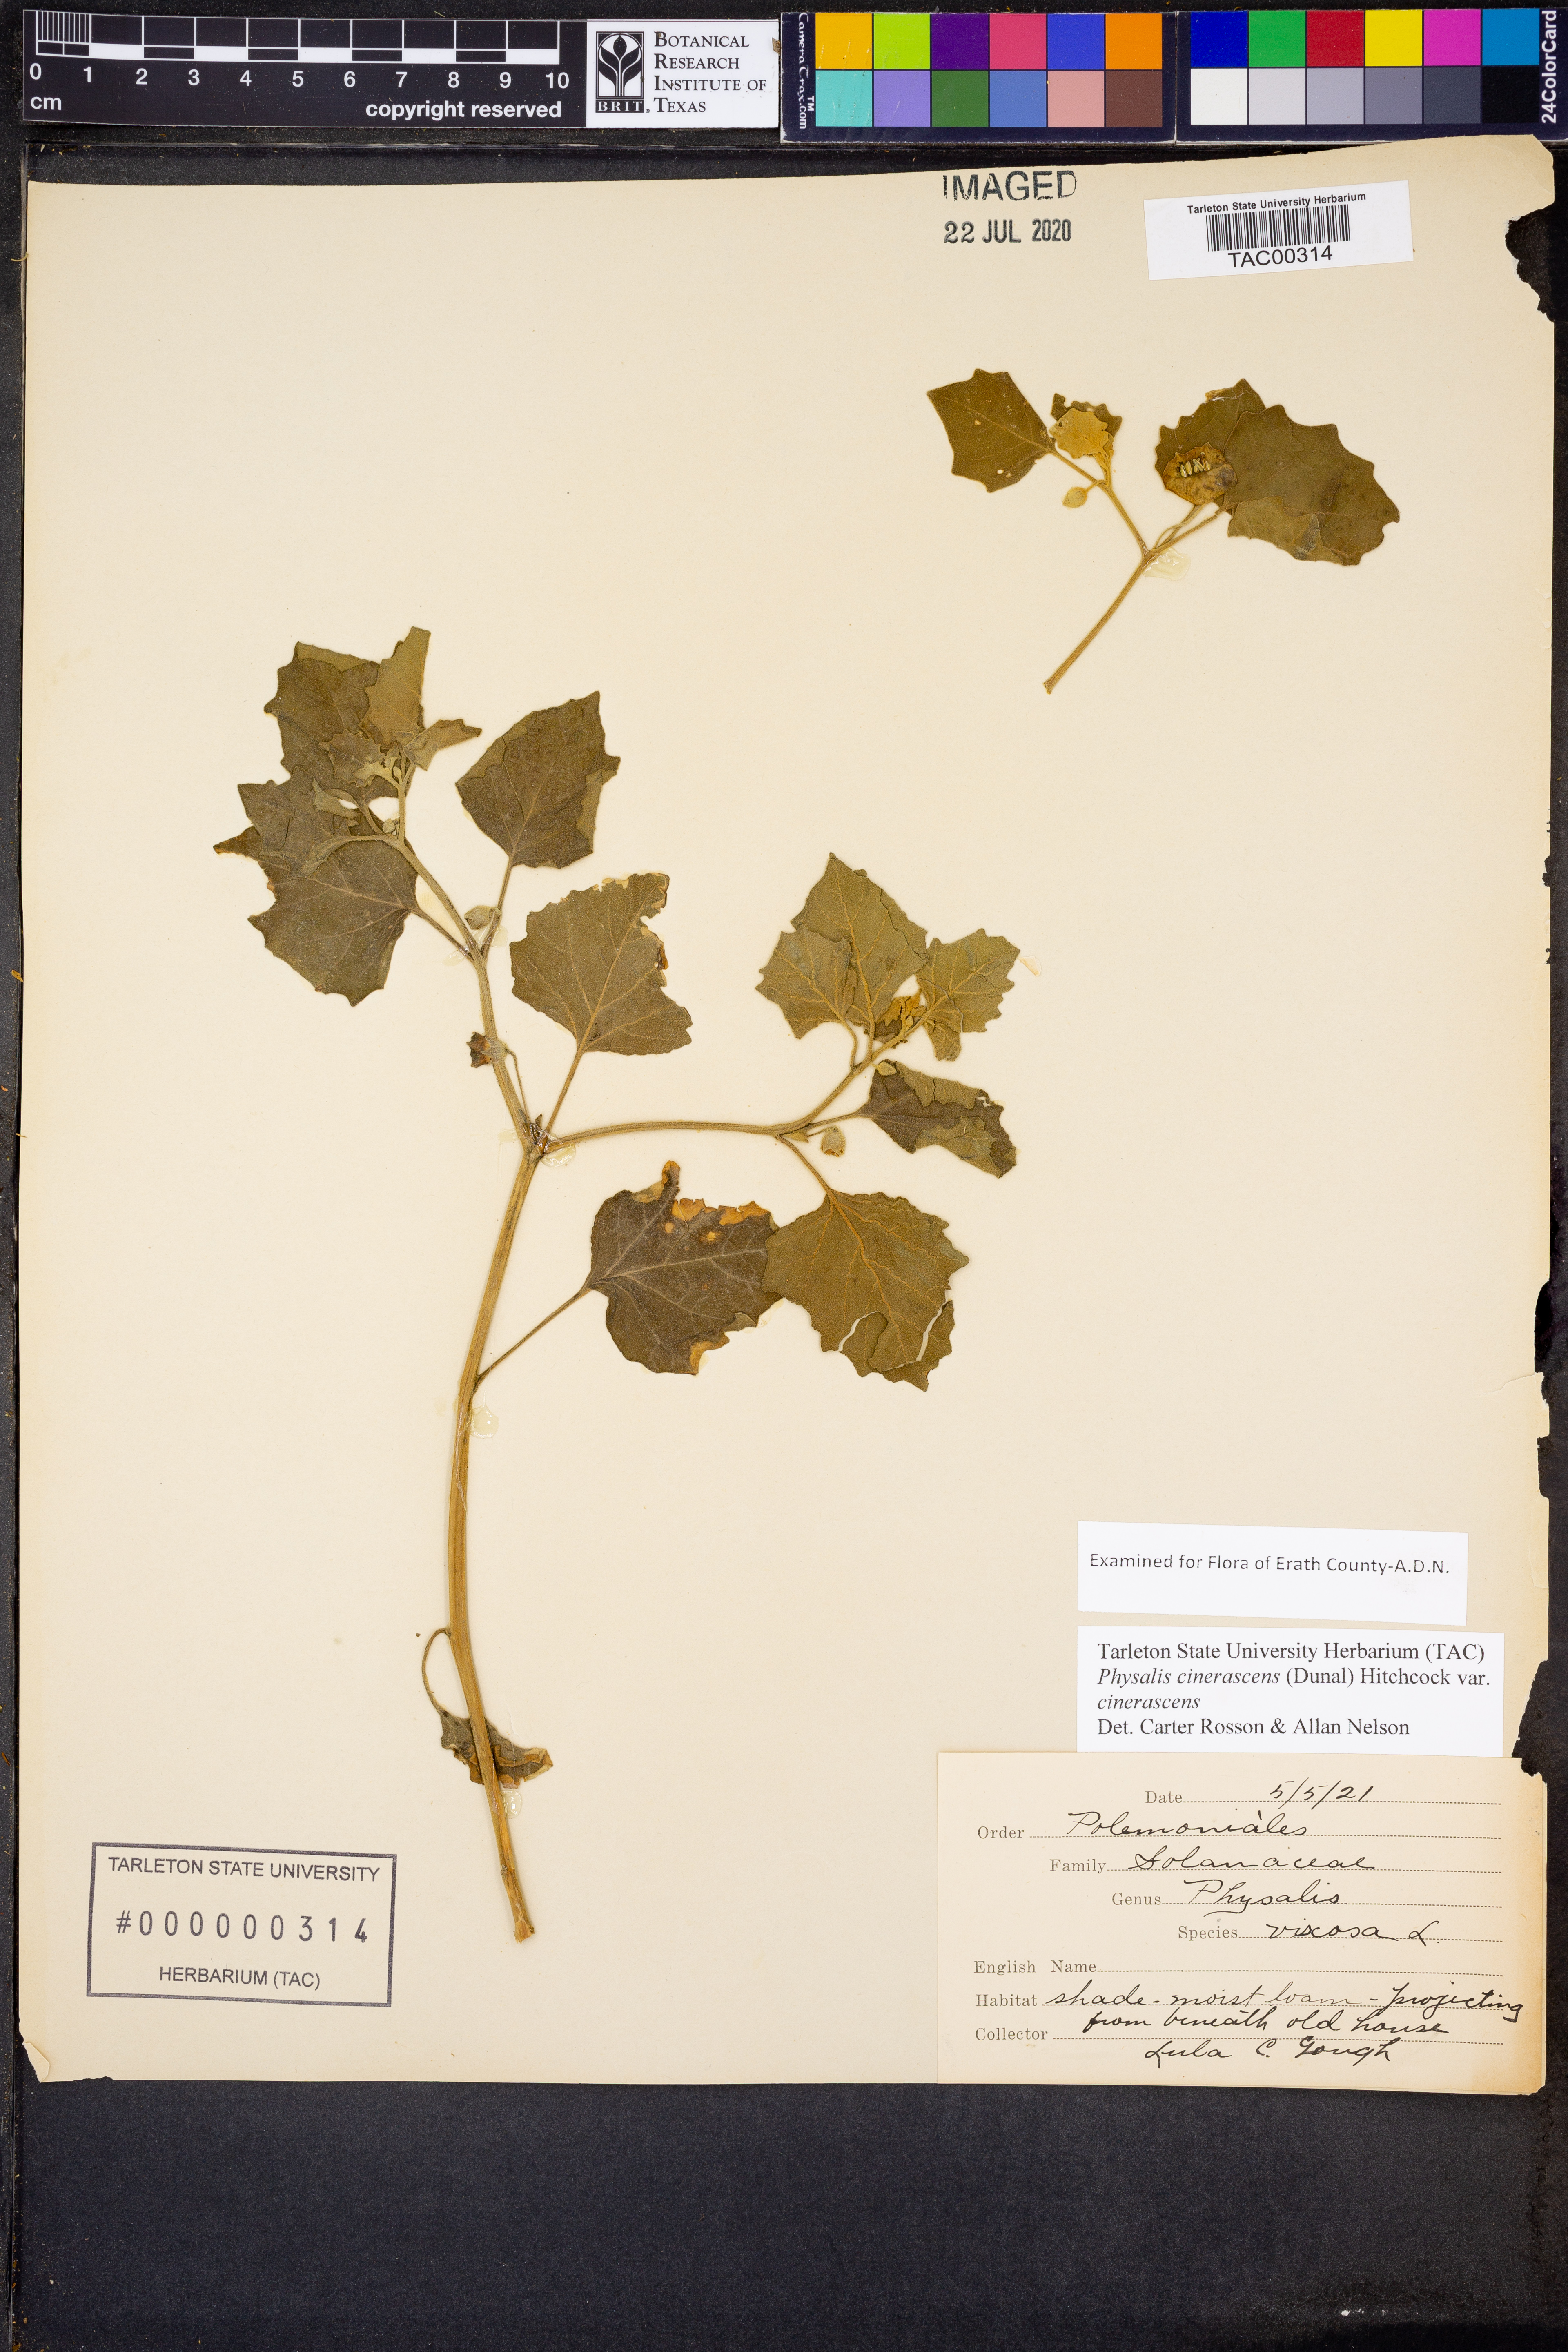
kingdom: Plantae
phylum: Tracheophyta
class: Magnoliopsida
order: Solanales
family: Solanaceae
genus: Physalis
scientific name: Physalis cinerascens
